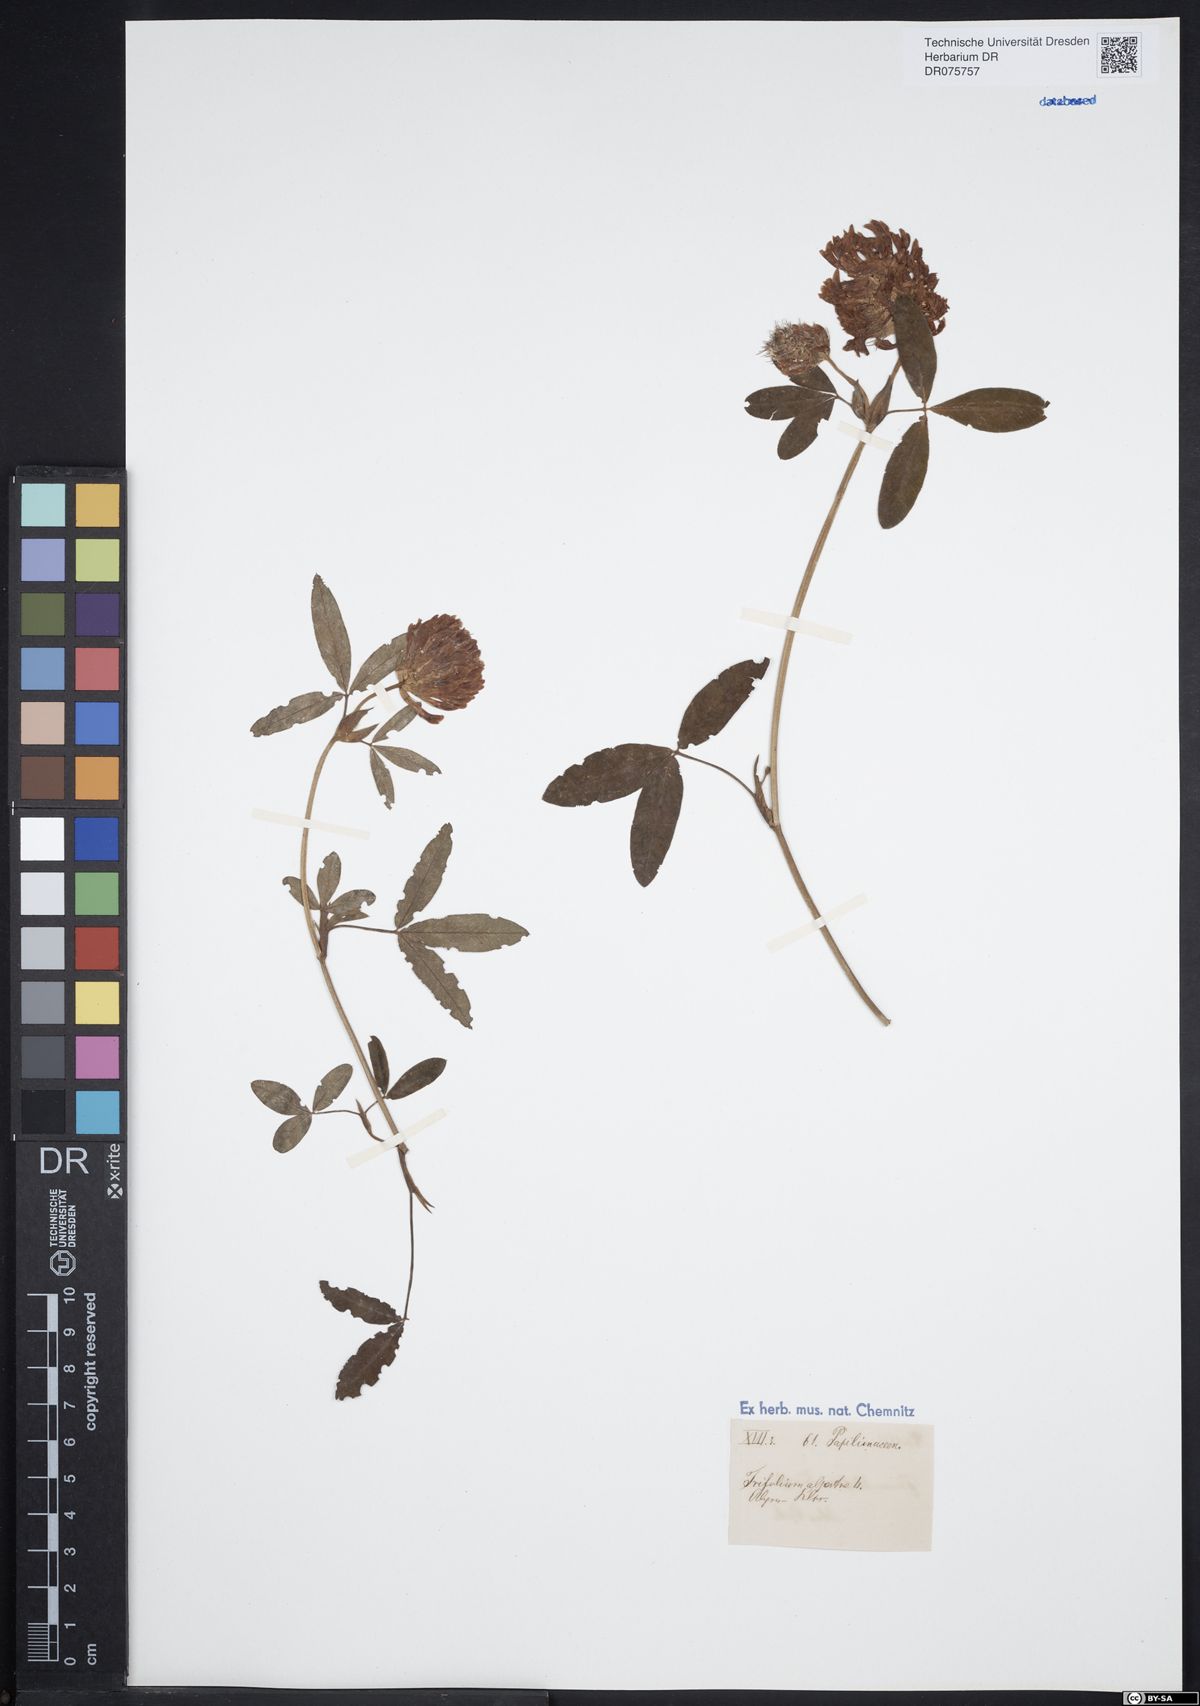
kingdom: Plantae
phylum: Tracheophyta
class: Magnoliopsida
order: Fabales
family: Fabaceae
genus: Trifolium
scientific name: Trifolium medium
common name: Zigzag clover
